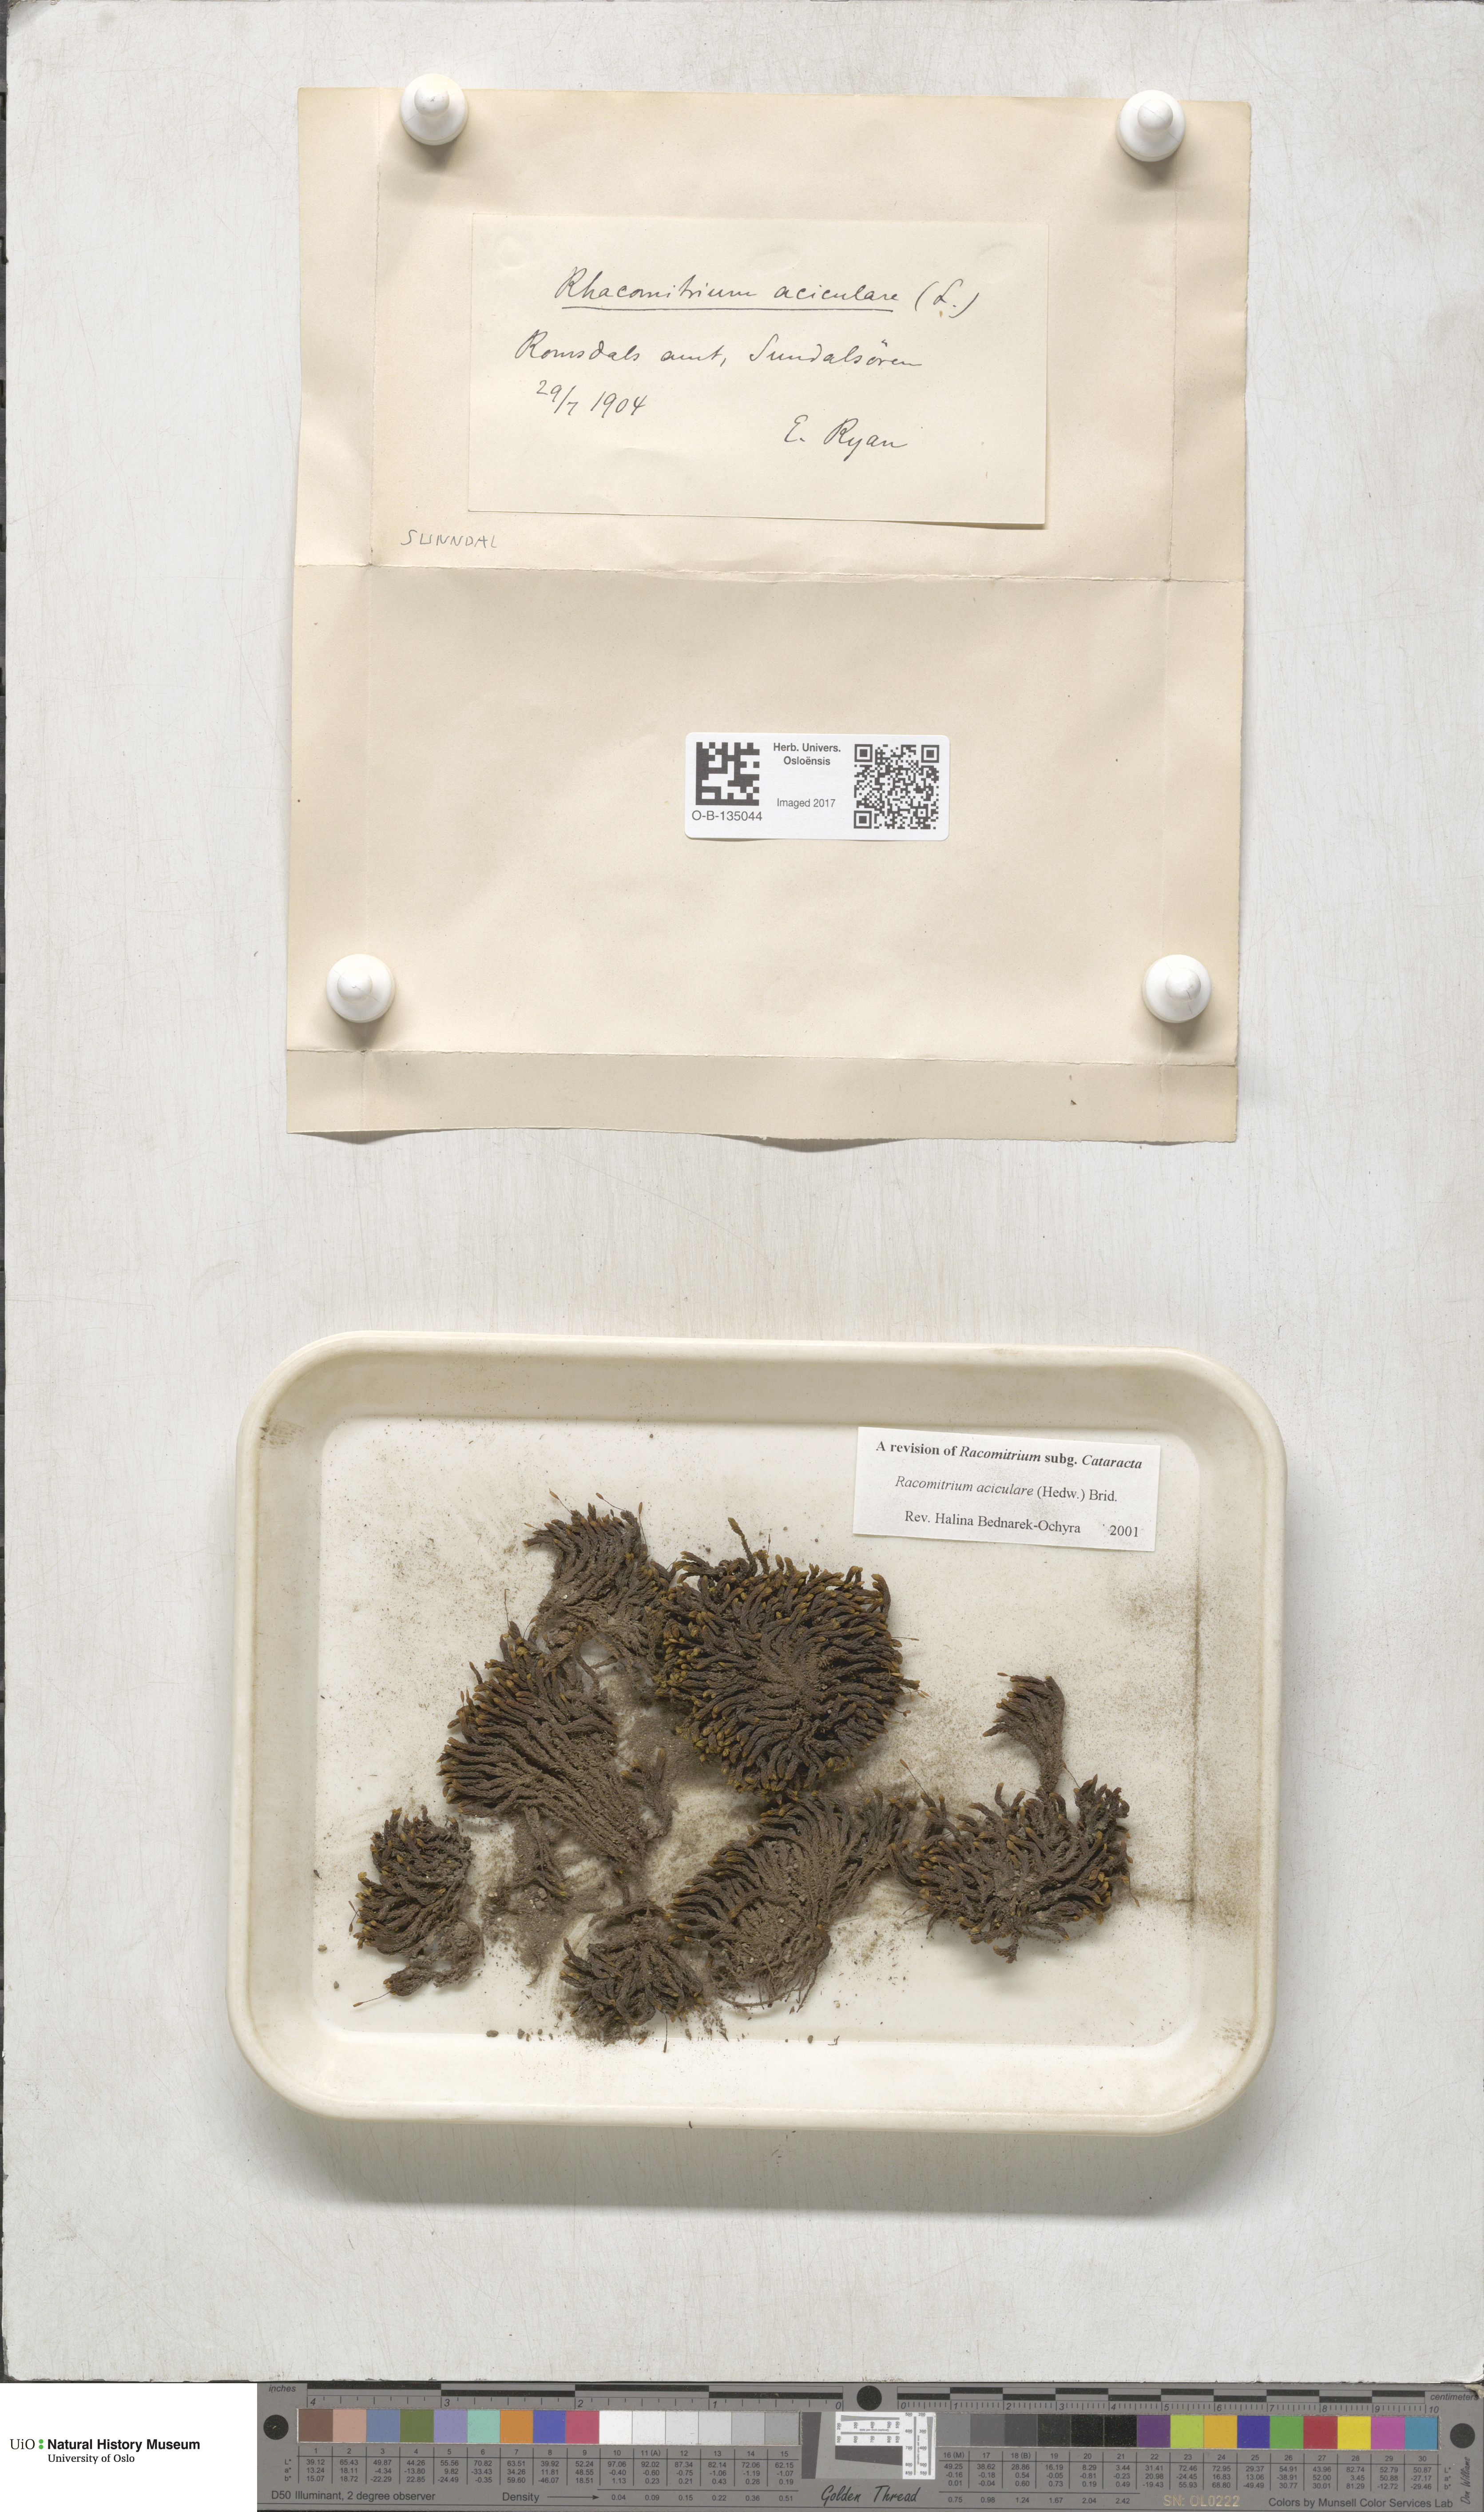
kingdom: Plantae
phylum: Bryophyta
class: Bryopsida
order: Grimmiales
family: Grimmiaceae
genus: Codriophorus
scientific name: Codriophorus acicularis
